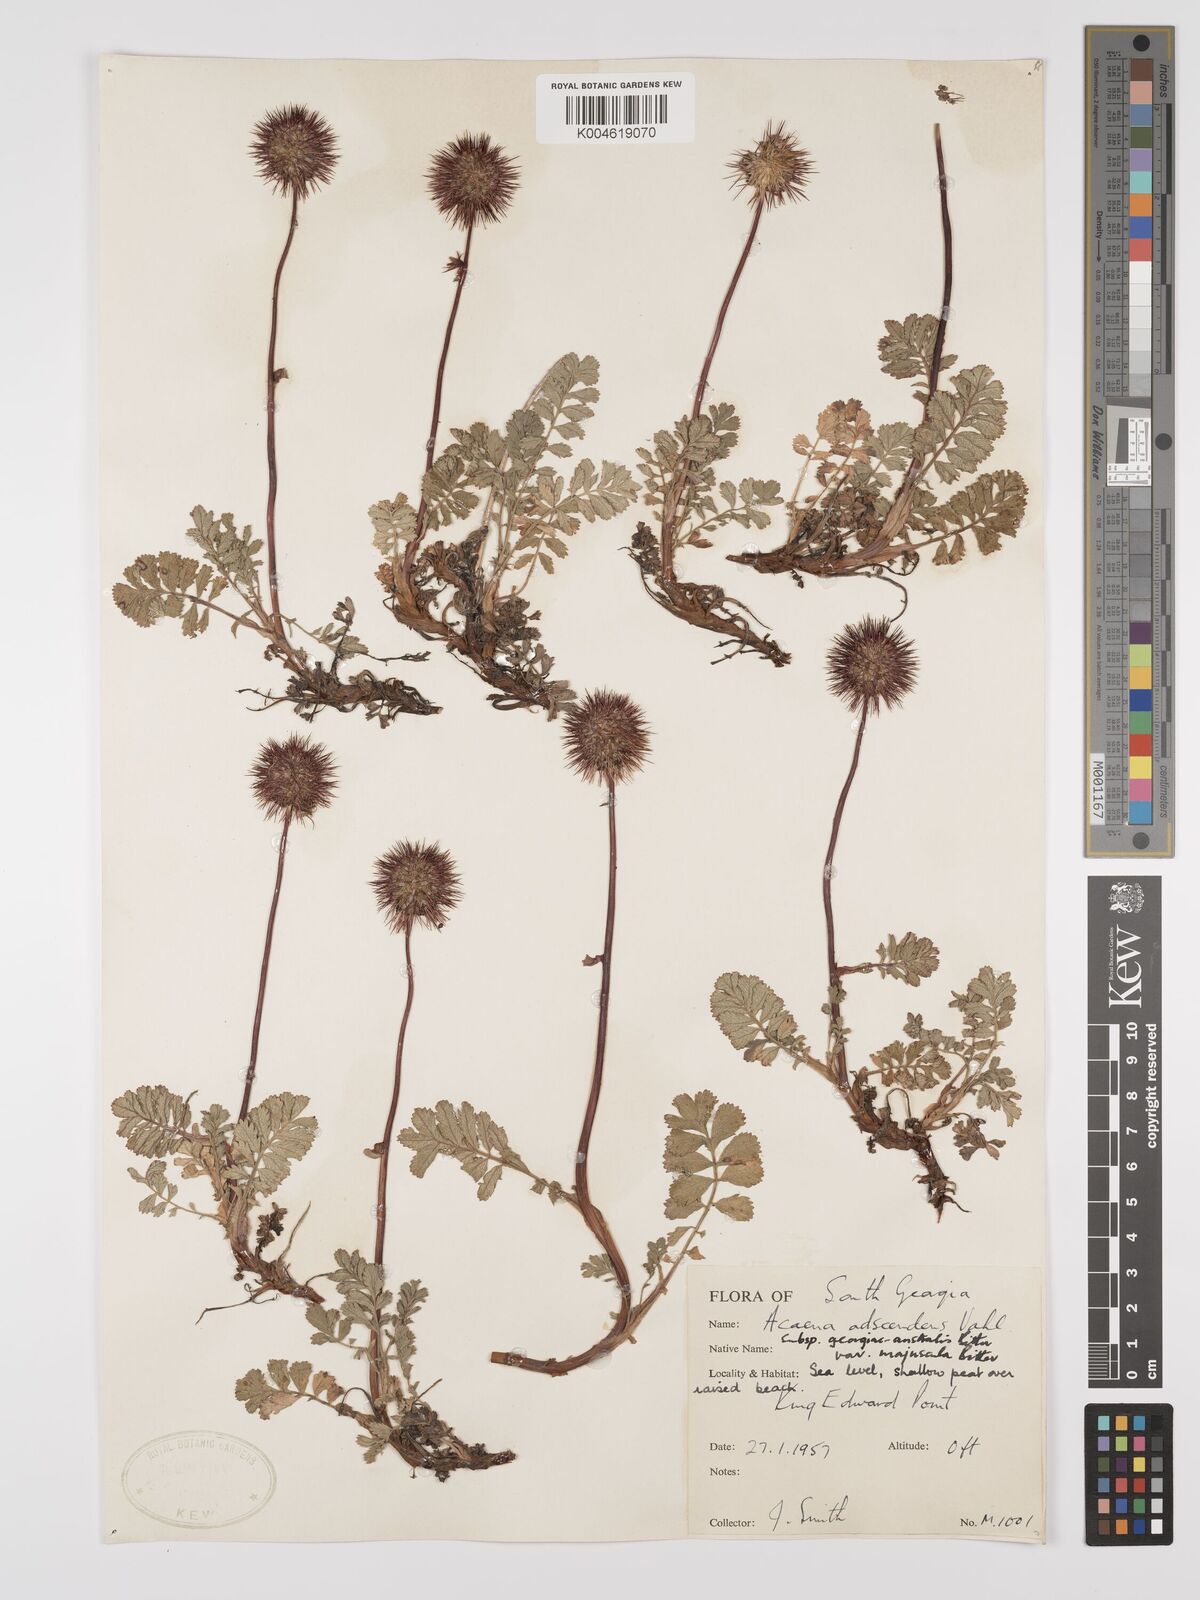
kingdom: Plantae
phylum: Tracheophyta
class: Magnoliopsida
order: Rosales
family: Rosaceae
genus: Acaena
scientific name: Acaena magellanica
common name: New zealand burr
